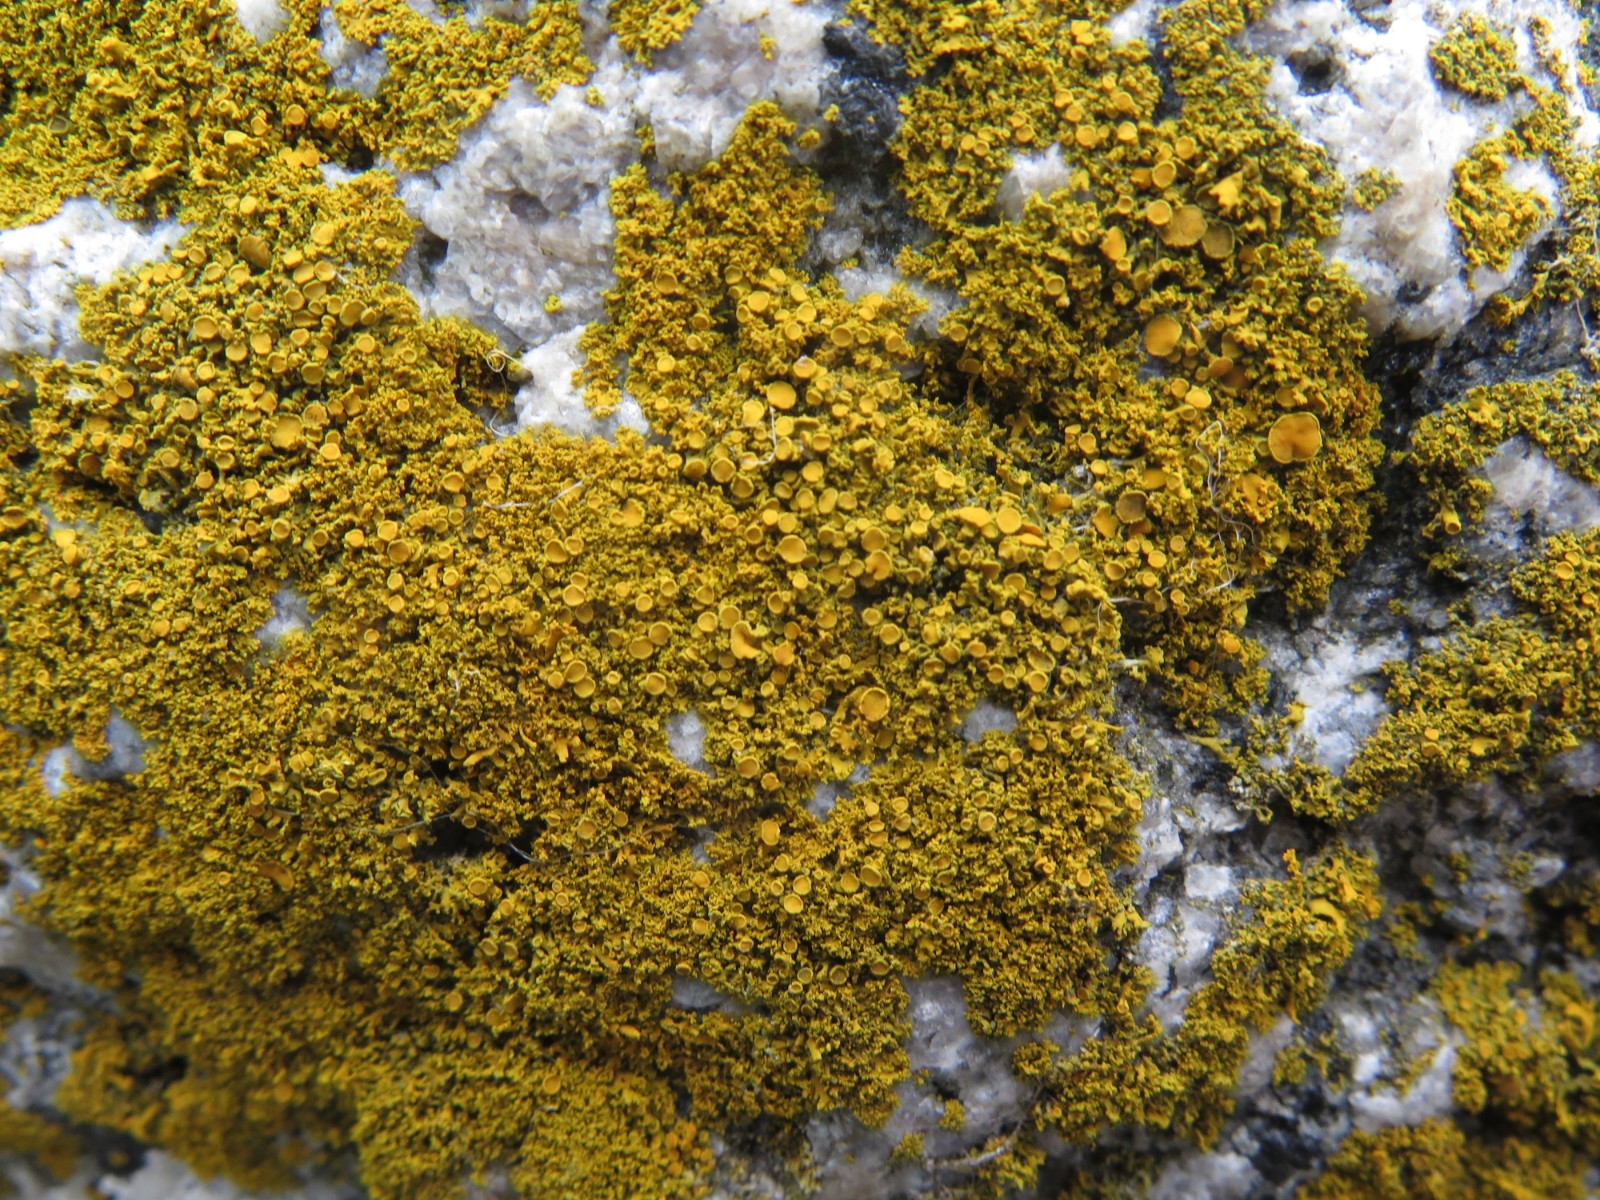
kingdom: Fungi
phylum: Ascomycota
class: Lecanoromycetes
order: Teloschistales
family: Teloschistaceae
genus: Polycauliona
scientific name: Polycauliona candelaria
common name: tue-orangelav
